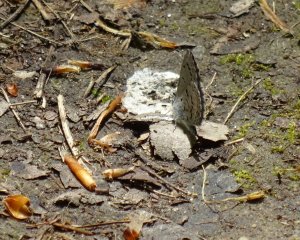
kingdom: Animalia
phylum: Arthropoda
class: Insecta
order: Lepidoptera
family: Lycaenidae
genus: Celastrina
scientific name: Celastrina lucia
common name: Northern Spring Azure
